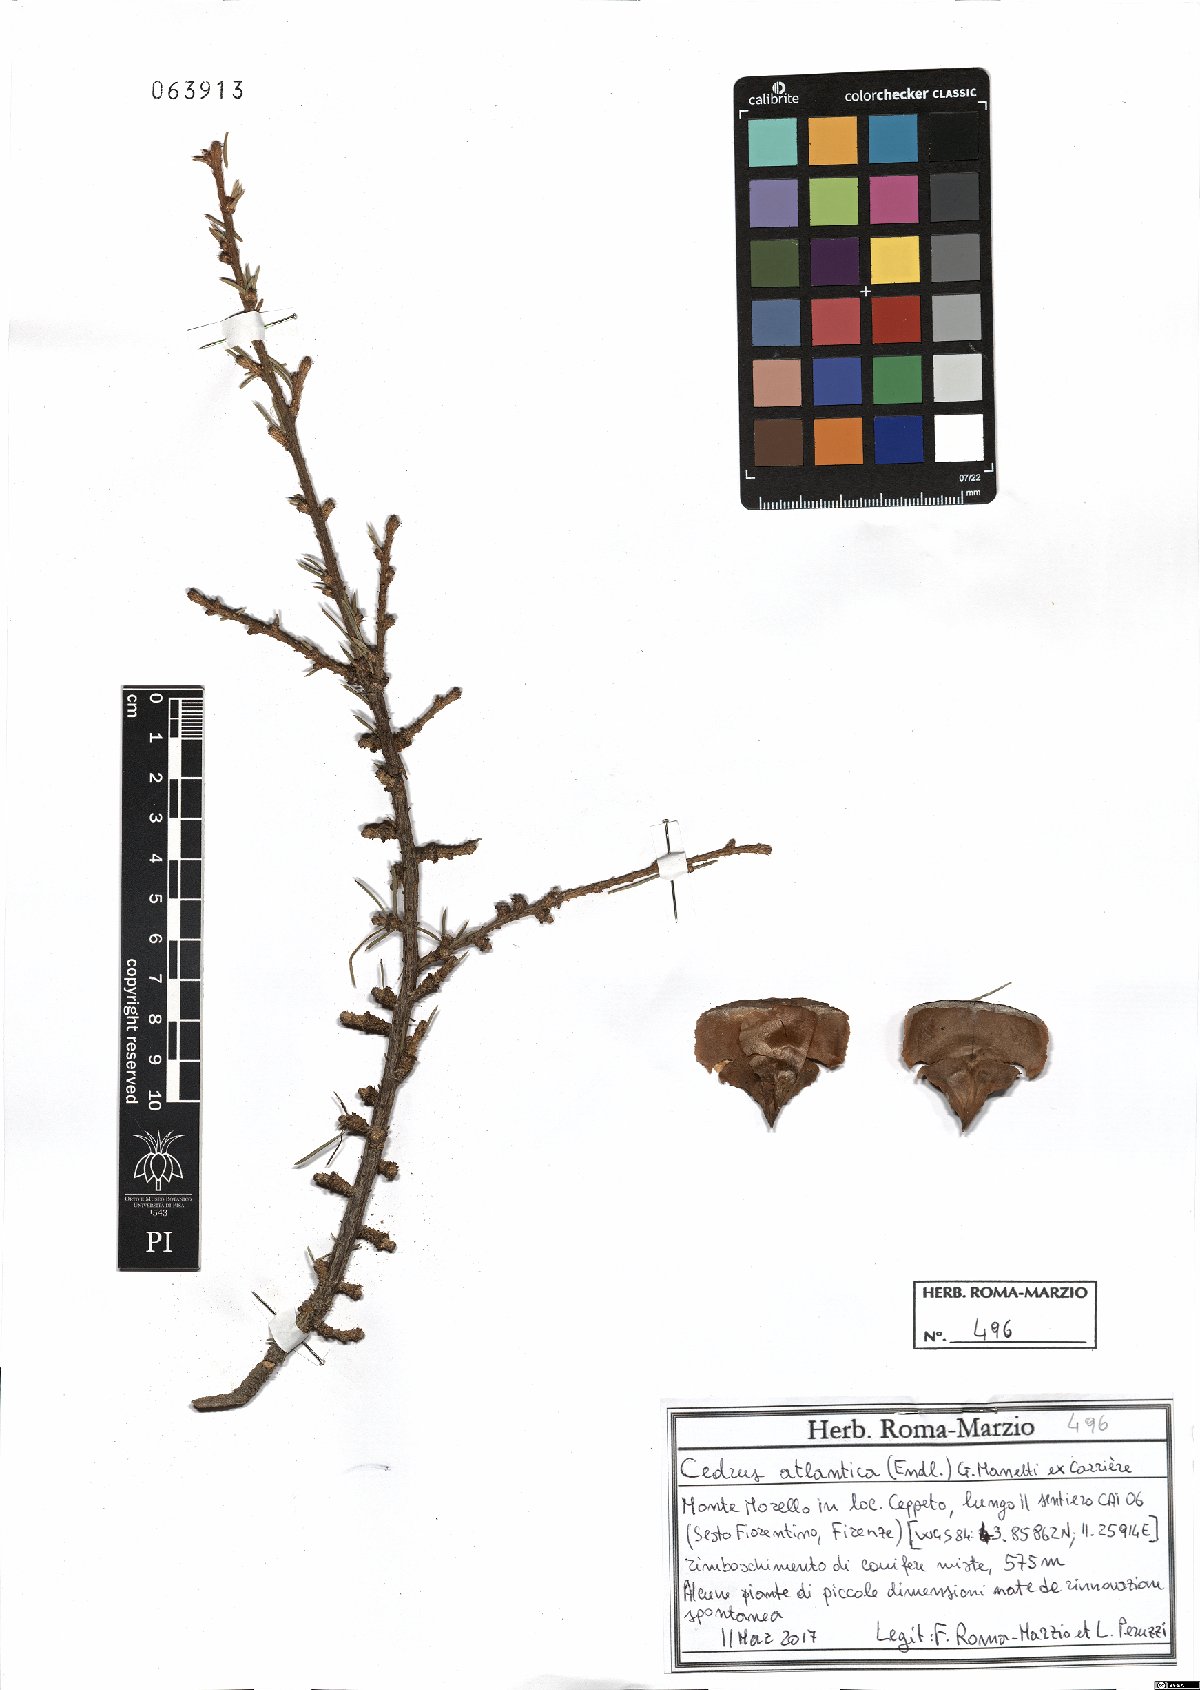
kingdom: Plantae
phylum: Tracheophyta
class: Pinopsida
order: Pinales
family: Pinaceae
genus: Cedrus
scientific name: Cedrus atlantica
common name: Atlas cedar
